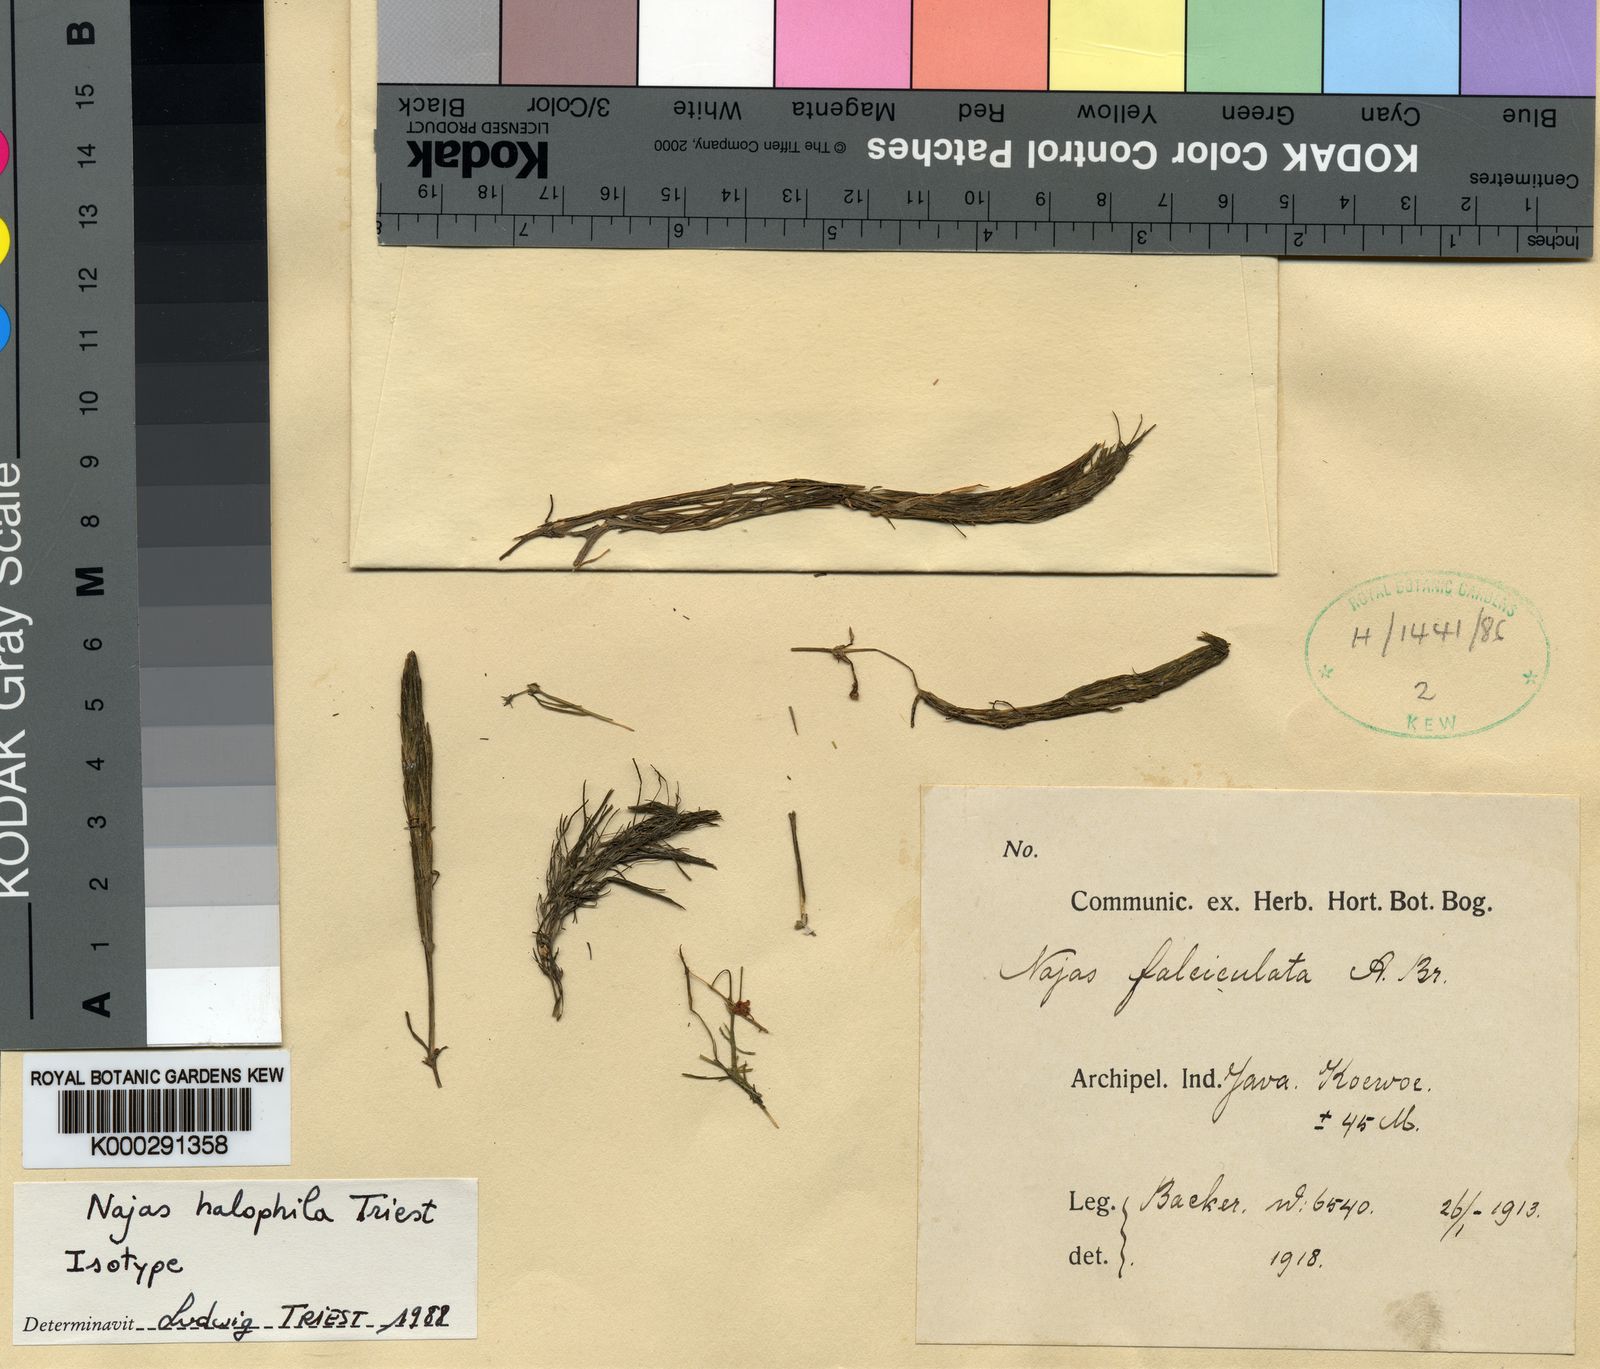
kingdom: Plantae
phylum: Tracheophyta
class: Liliopsida
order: Alismatales
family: Hydrocharitaceae
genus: Najas
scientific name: Najas halophila
